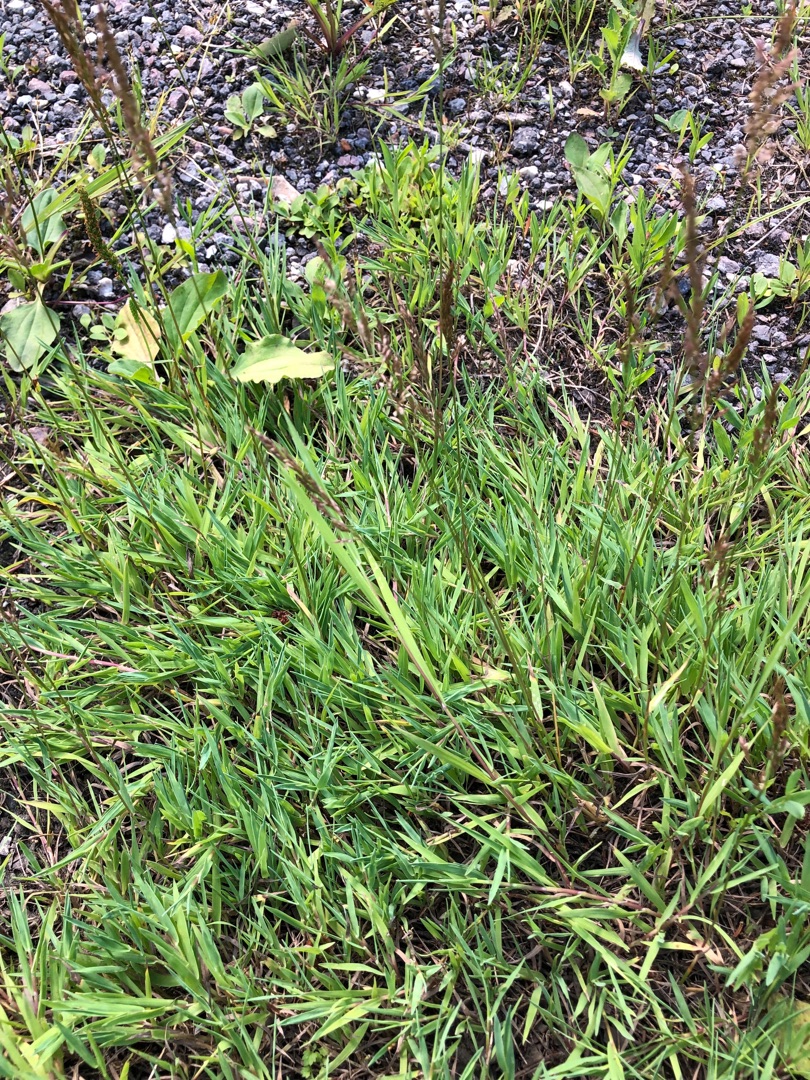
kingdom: Plantae
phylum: Tracheophyta
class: Liliopsida
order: Poales
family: Poaceae
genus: Agrostis
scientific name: Agrostis stolonifera
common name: Kryb-hvene
